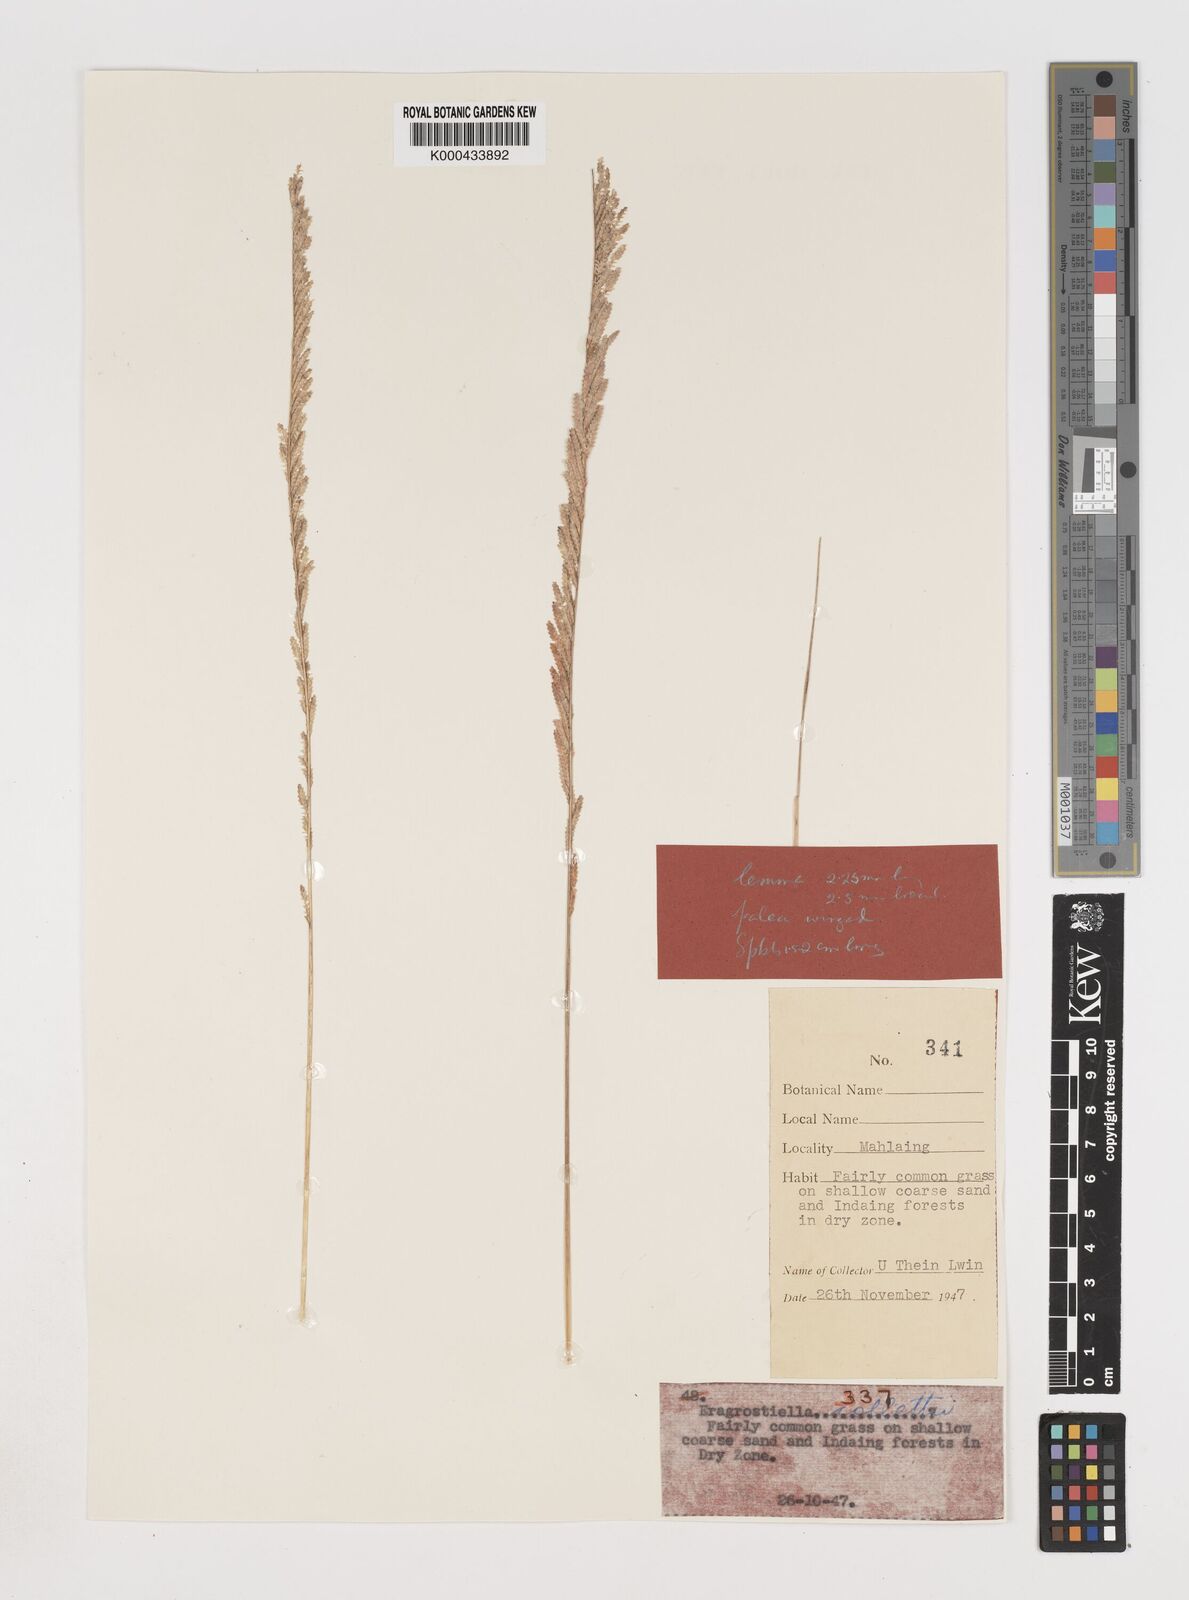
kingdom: Plantae
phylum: Tracheophyta
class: Liliopsida
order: Poales
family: Poaceae
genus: Eragrostiella
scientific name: Eragrostiella collettii
